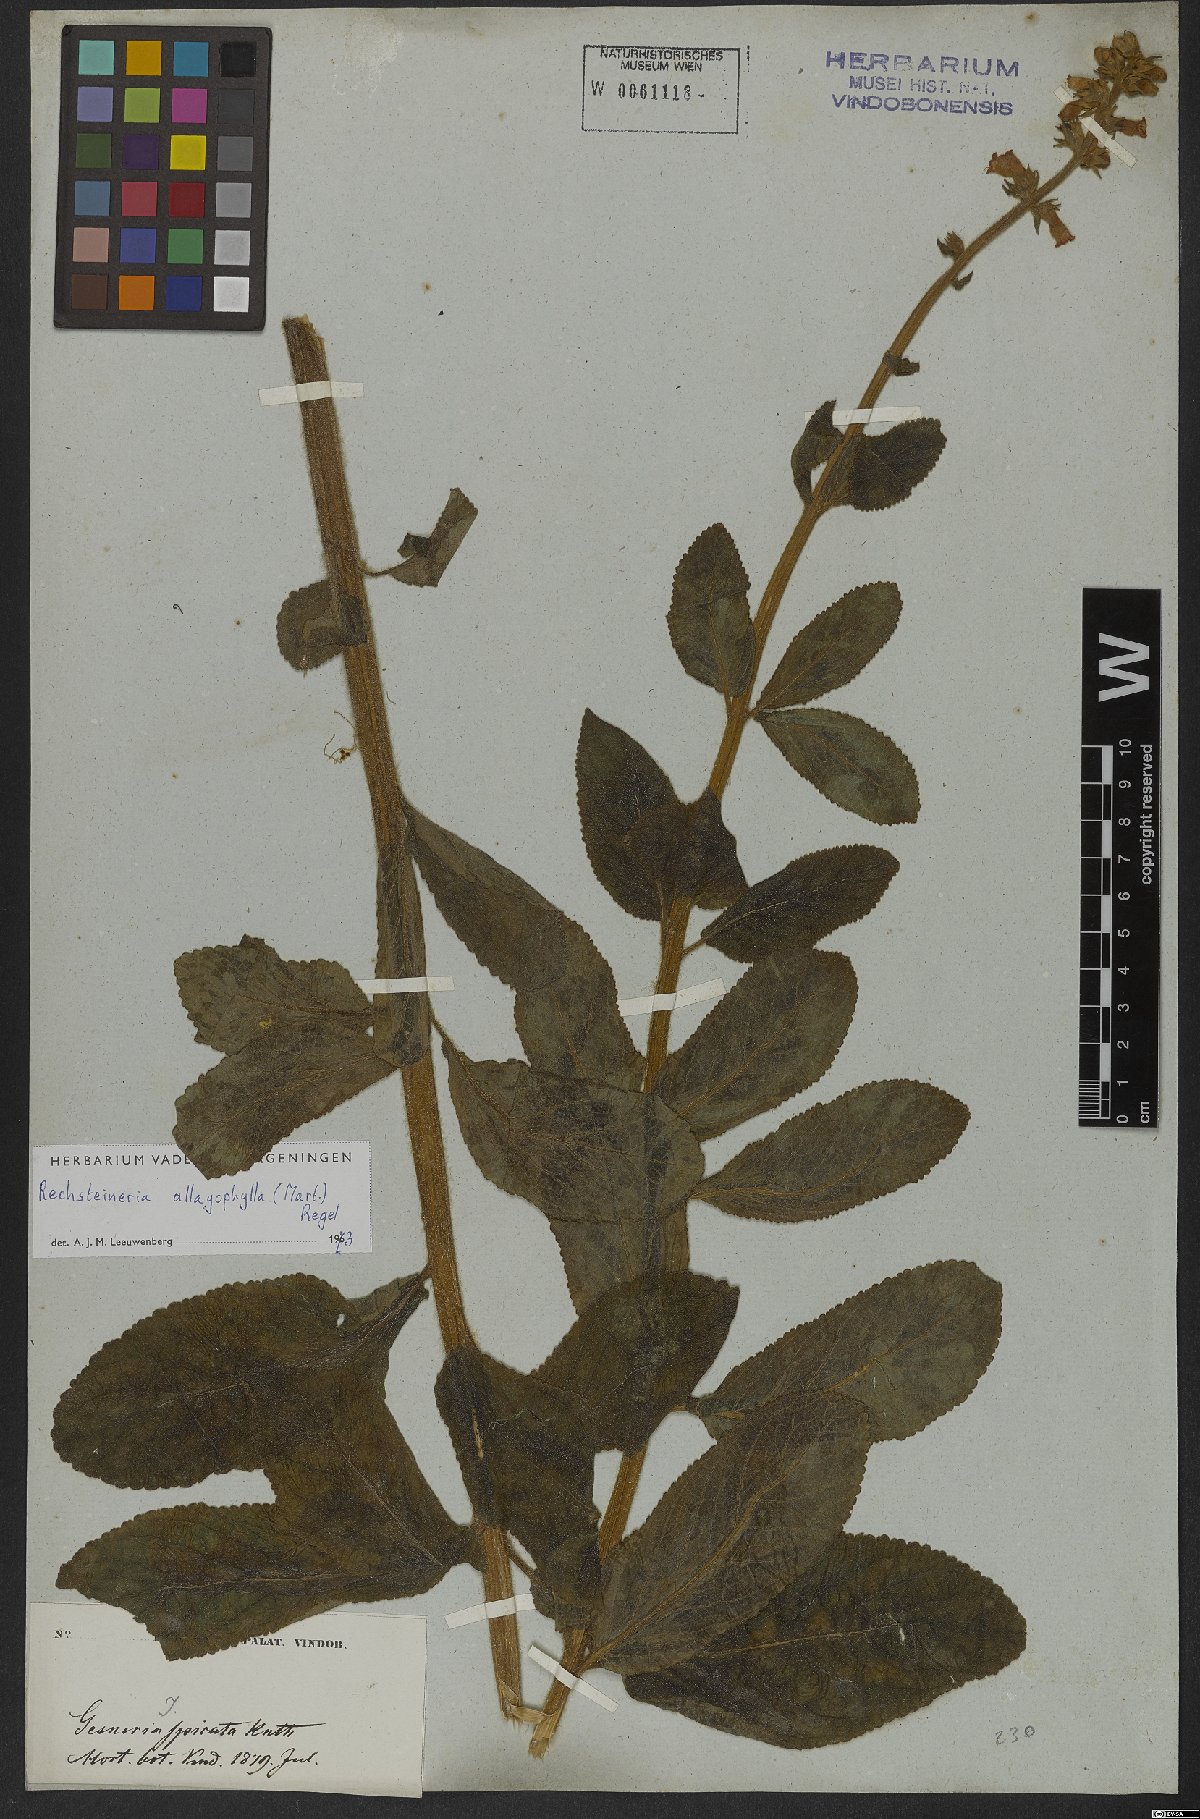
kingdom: Plantae
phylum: Tracheophyta
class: Magnoliopsida
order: Lamiales
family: Gesneriaceae
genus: Sinningia
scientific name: Sinningia allagophylla
